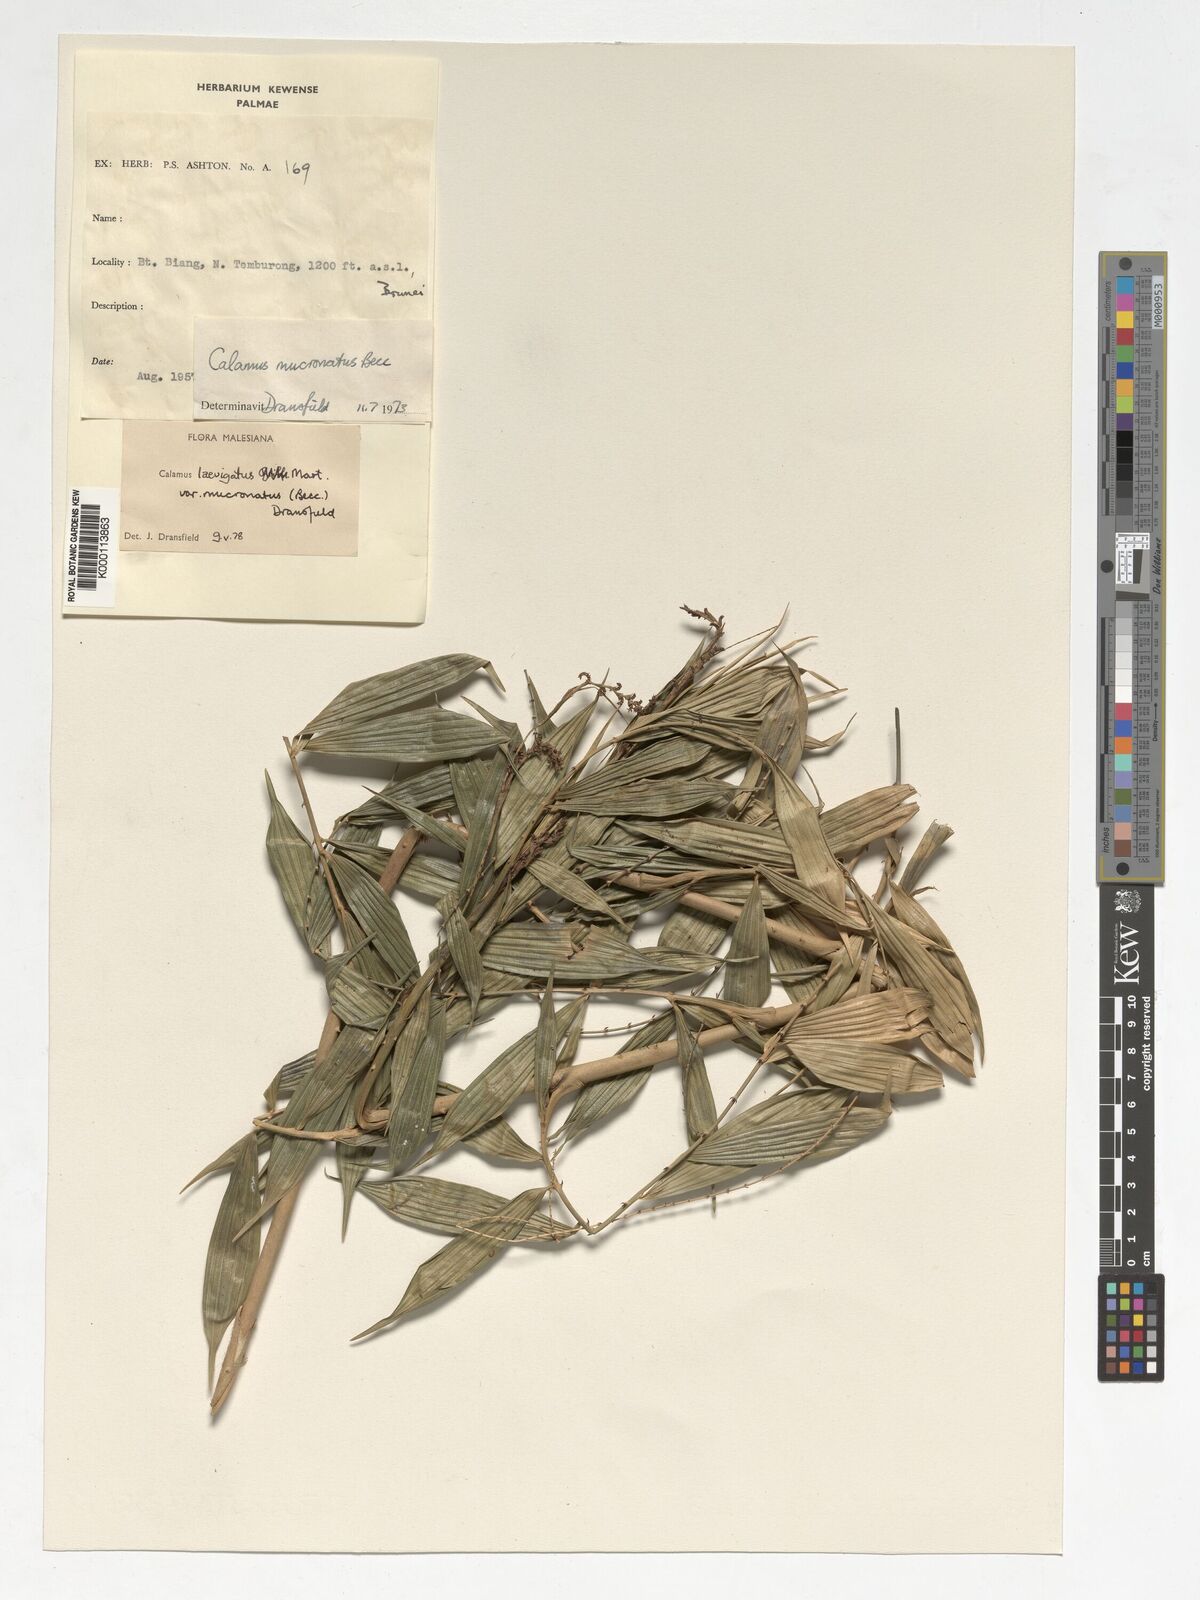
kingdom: Plantae
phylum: Tracheophyta
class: Liliopsida
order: Arecales
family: Arecaceae
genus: Calamus
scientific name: Calamus plicatus
